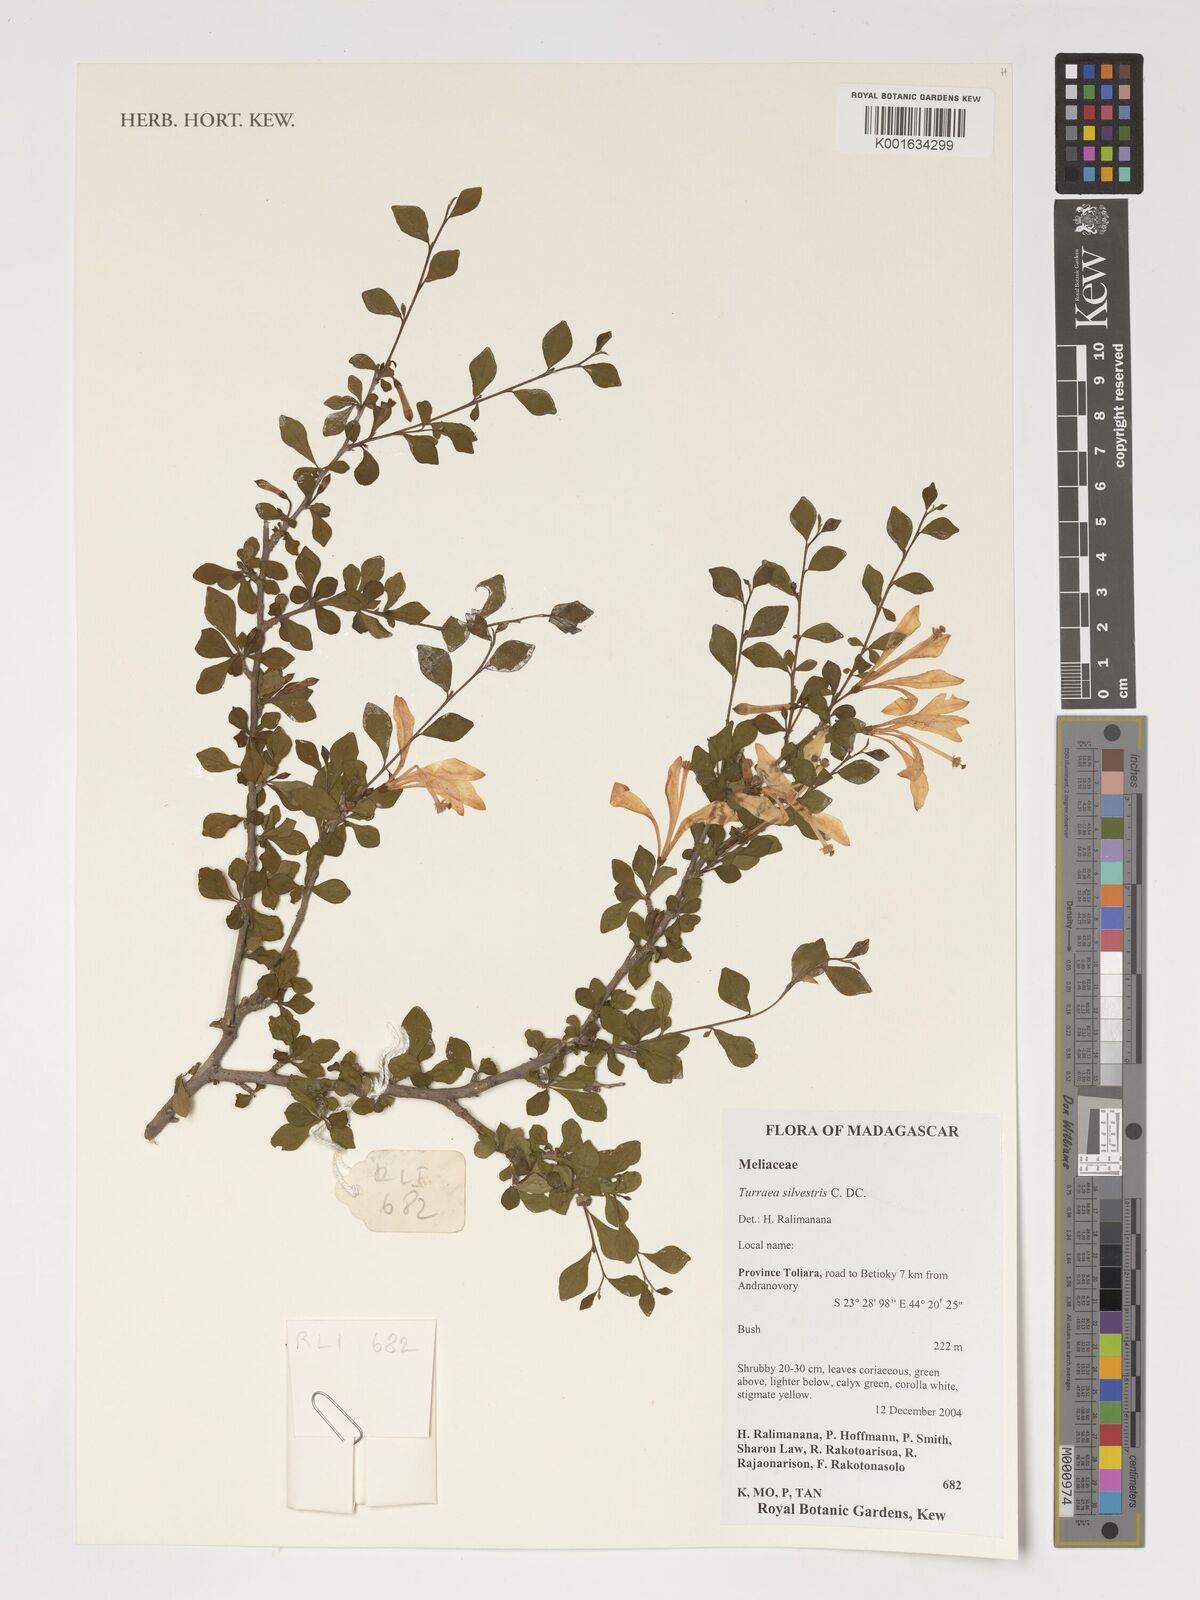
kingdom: Plantae
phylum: Tracheophyta
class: Magnoliopsida
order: Sapindales
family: Meliaceae
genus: Turraea
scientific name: Turraea rhombifolia
